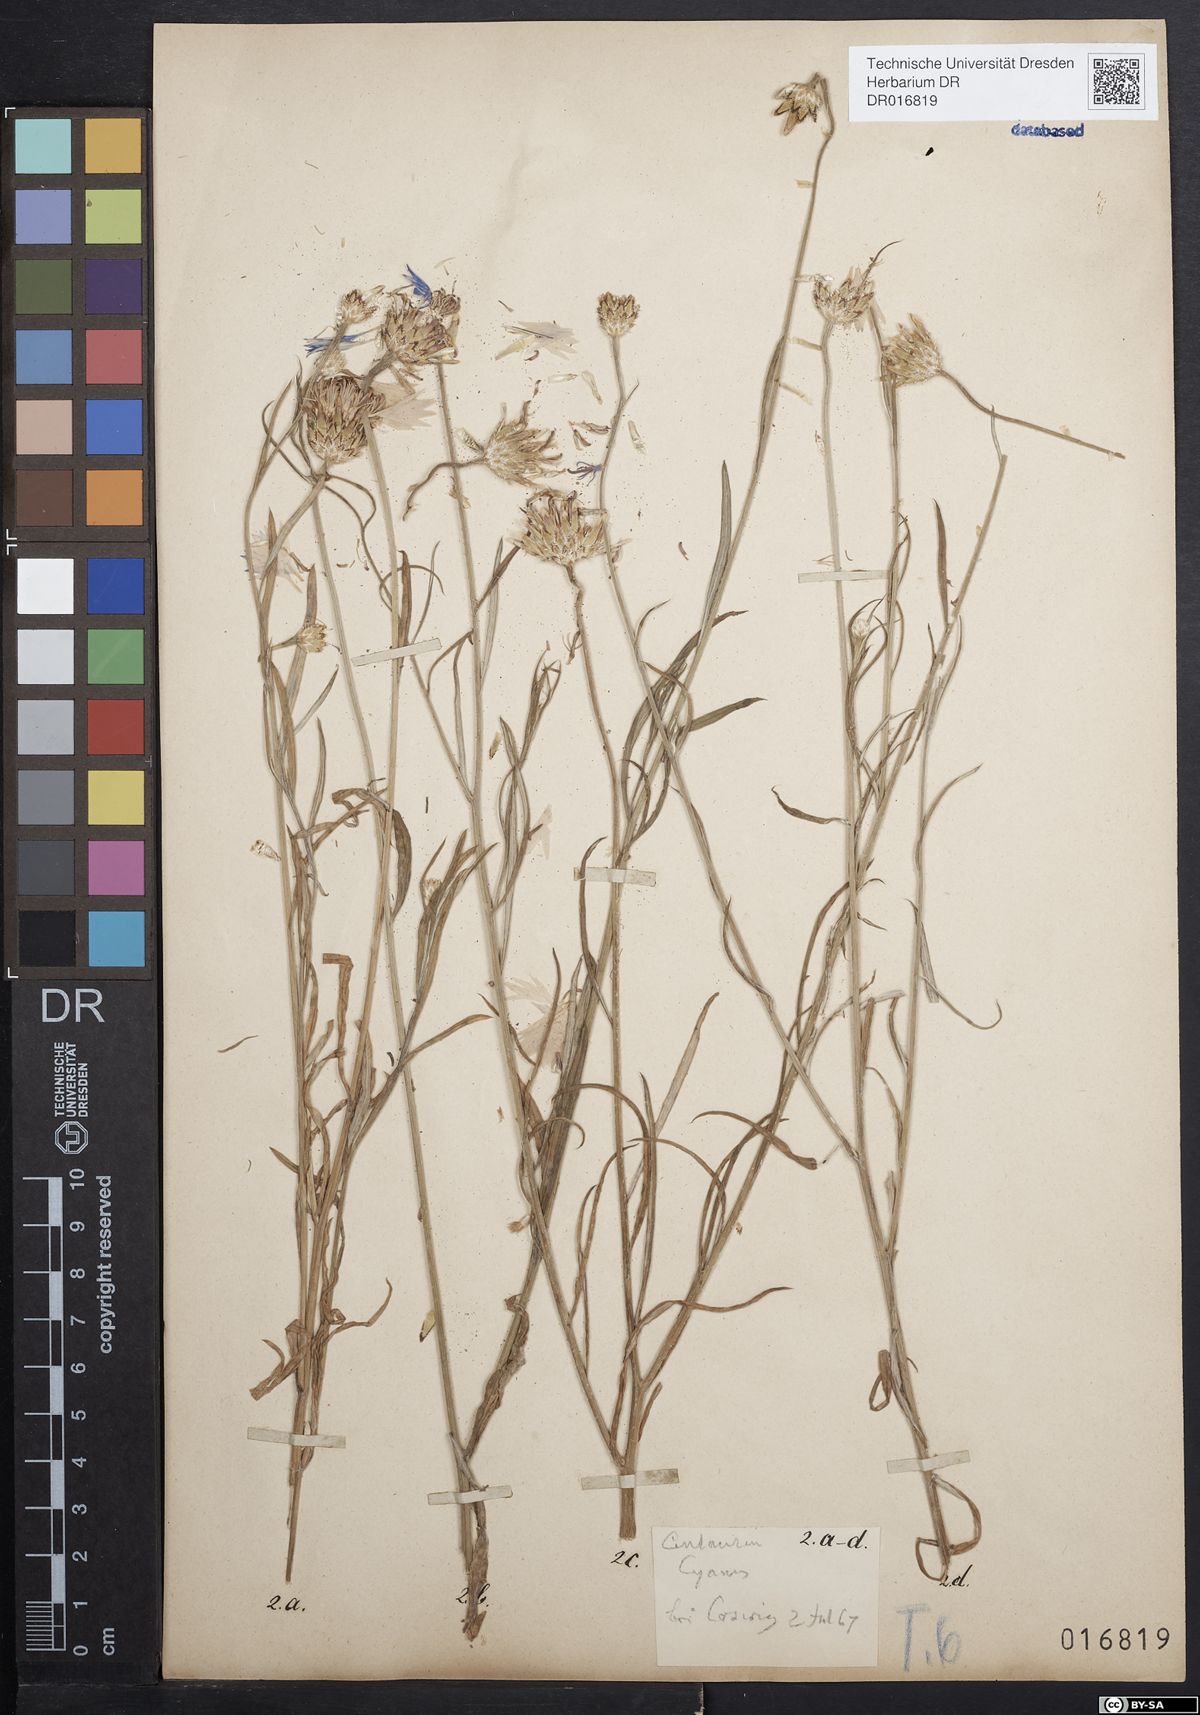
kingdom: Plantae
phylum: Tracheophyta
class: Magnoliopsida
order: Asterales
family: Asteraceae
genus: Centaurea
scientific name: Centaurea cyanus
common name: Cornflower
